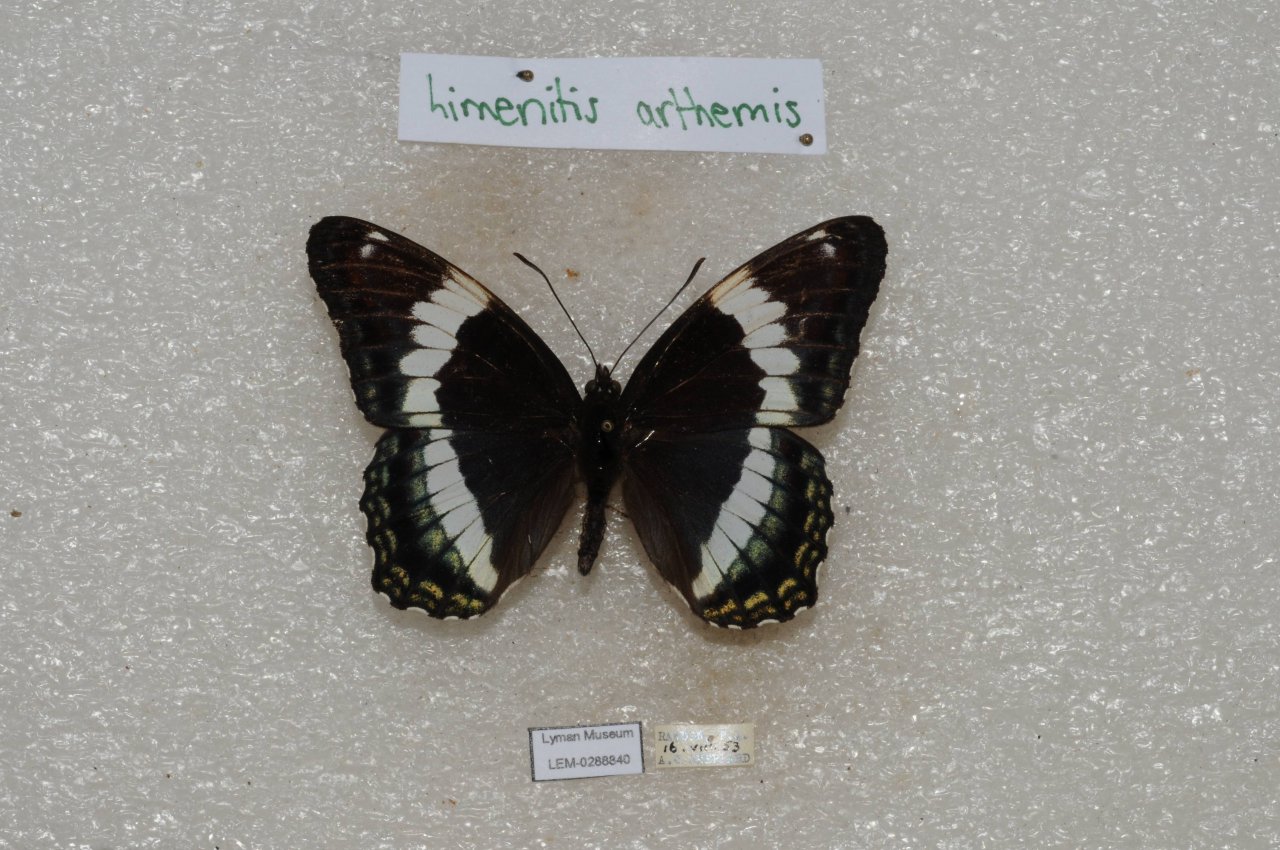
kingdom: Animalia
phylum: Arthropoda
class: Insecta
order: Lepidoptera
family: Nymphalidae
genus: Limenitis
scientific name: Limenitis arthemis
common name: Red-spotted Admiral
